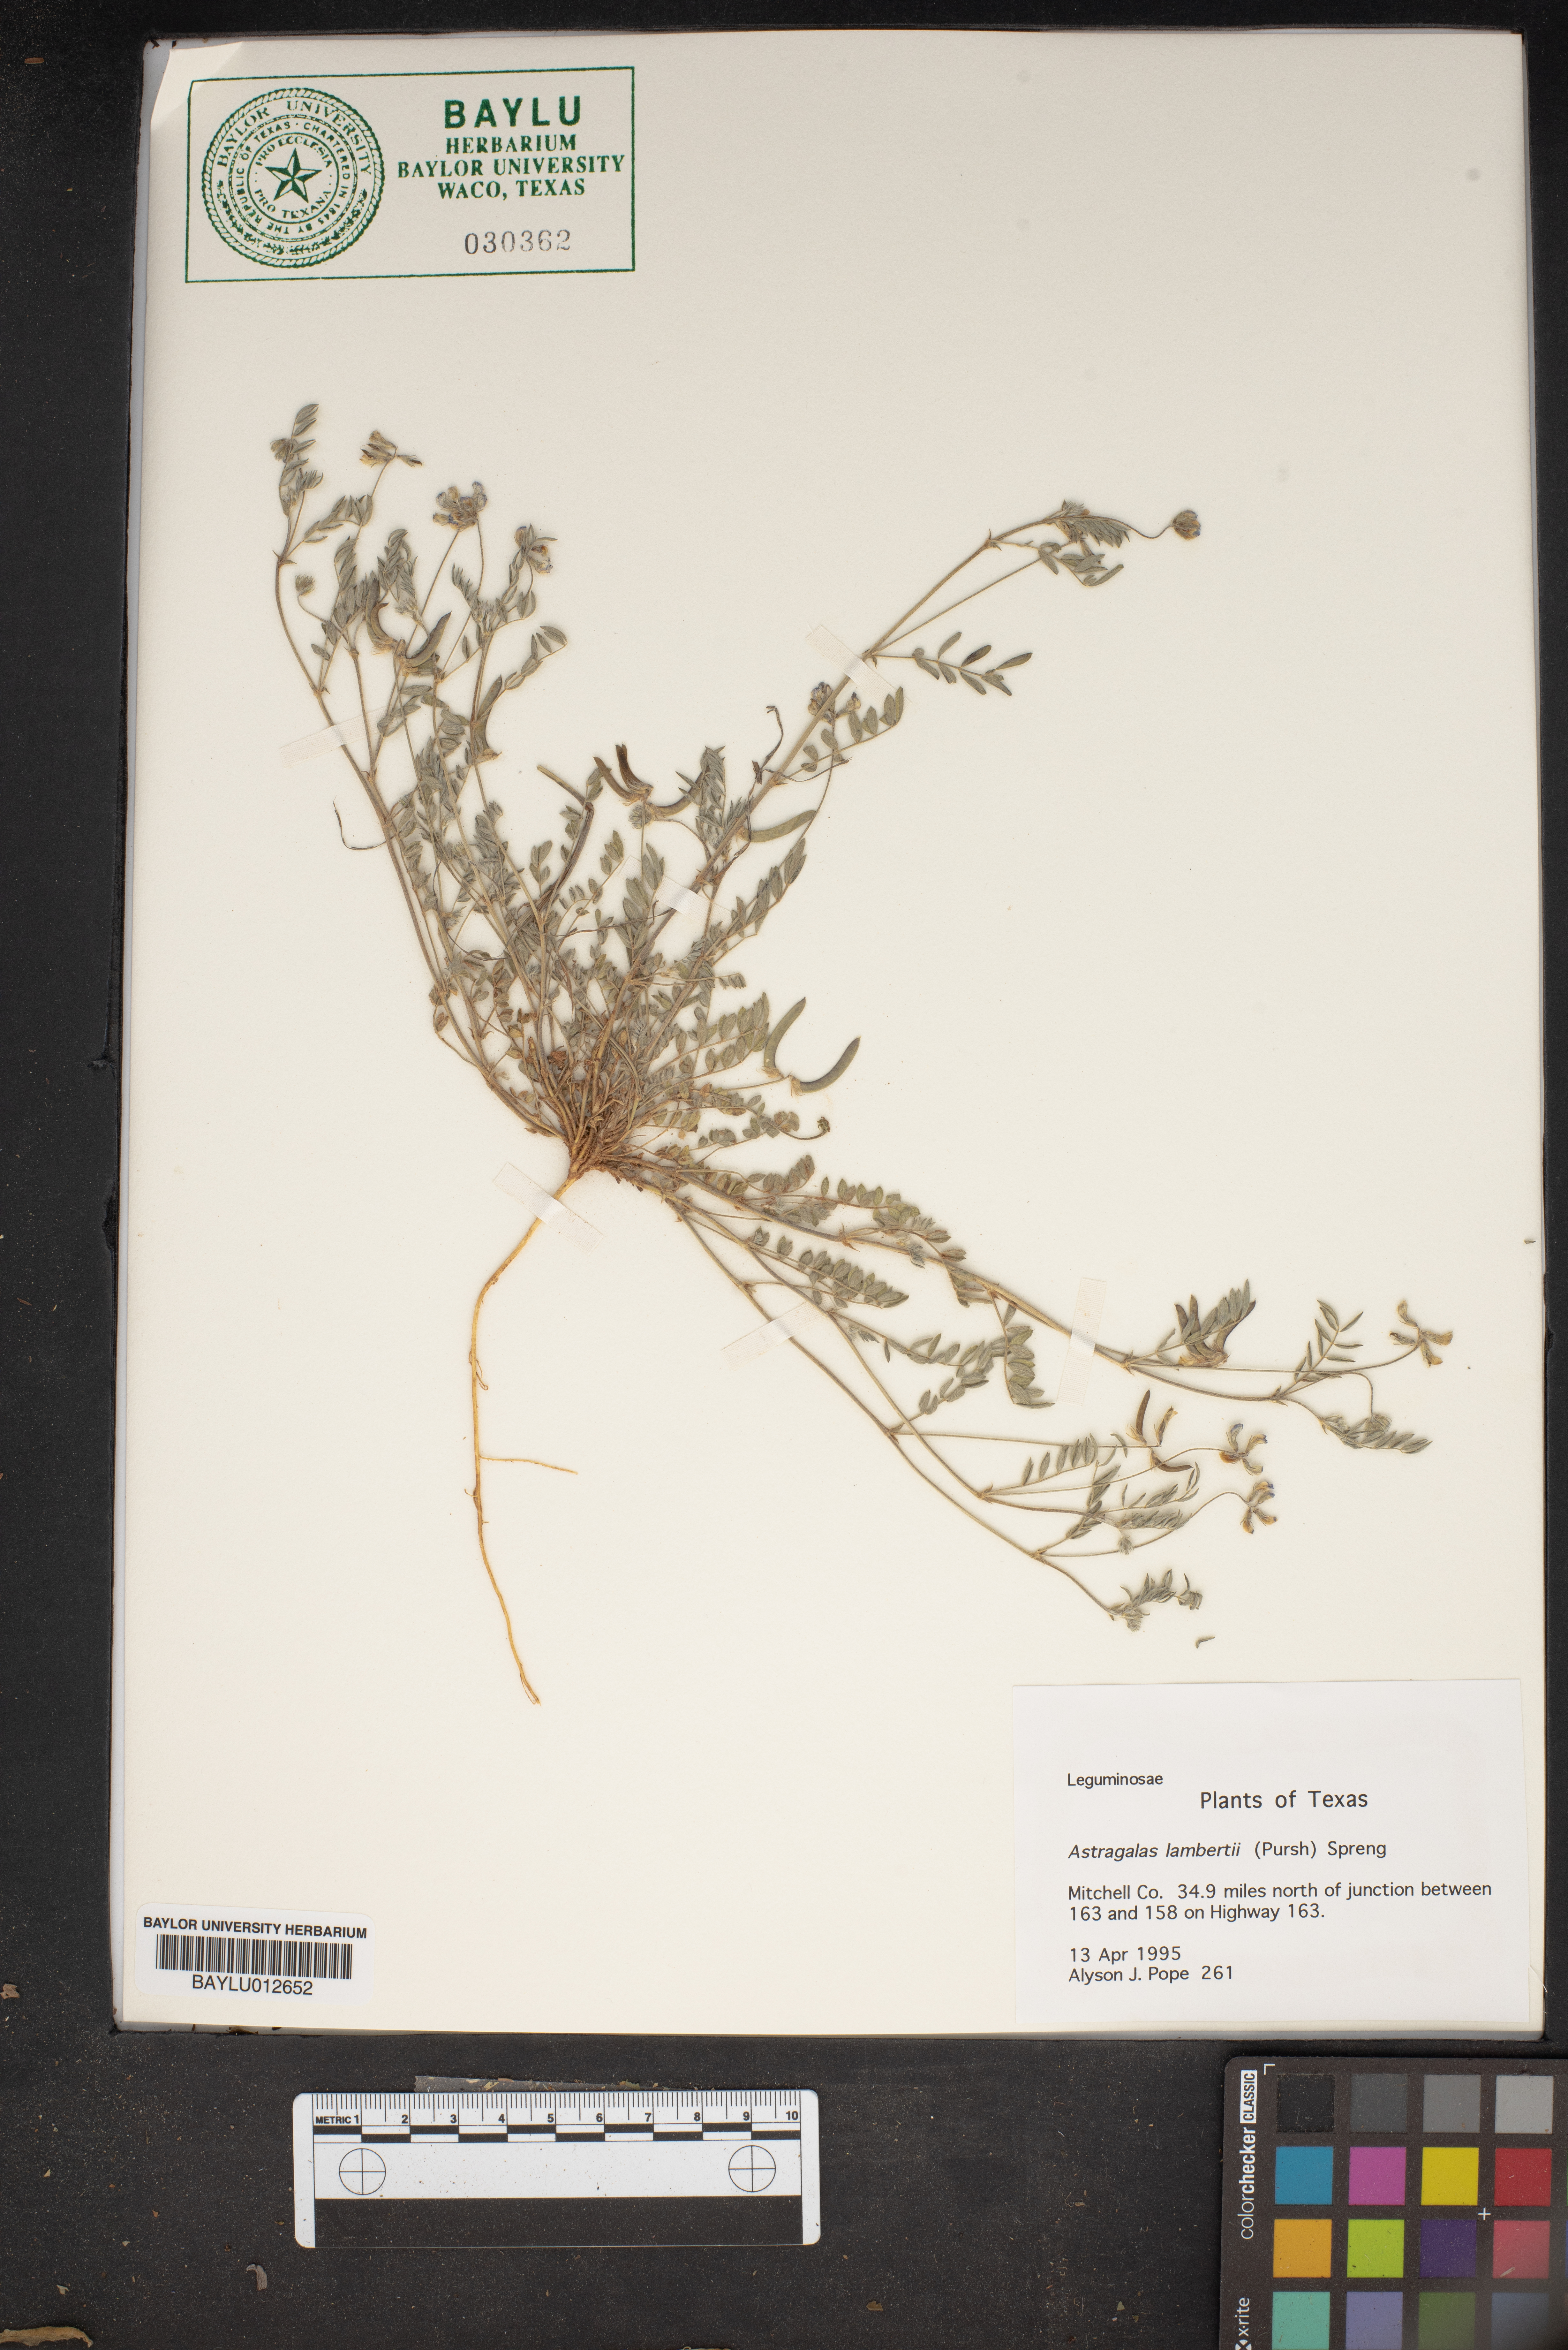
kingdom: Plantae
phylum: Tracheophyta
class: Magnoliopsida
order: Fabales
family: Fabaceae
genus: Oxytropis
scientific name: Oxytropis lambertii
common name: Purple locoweed
